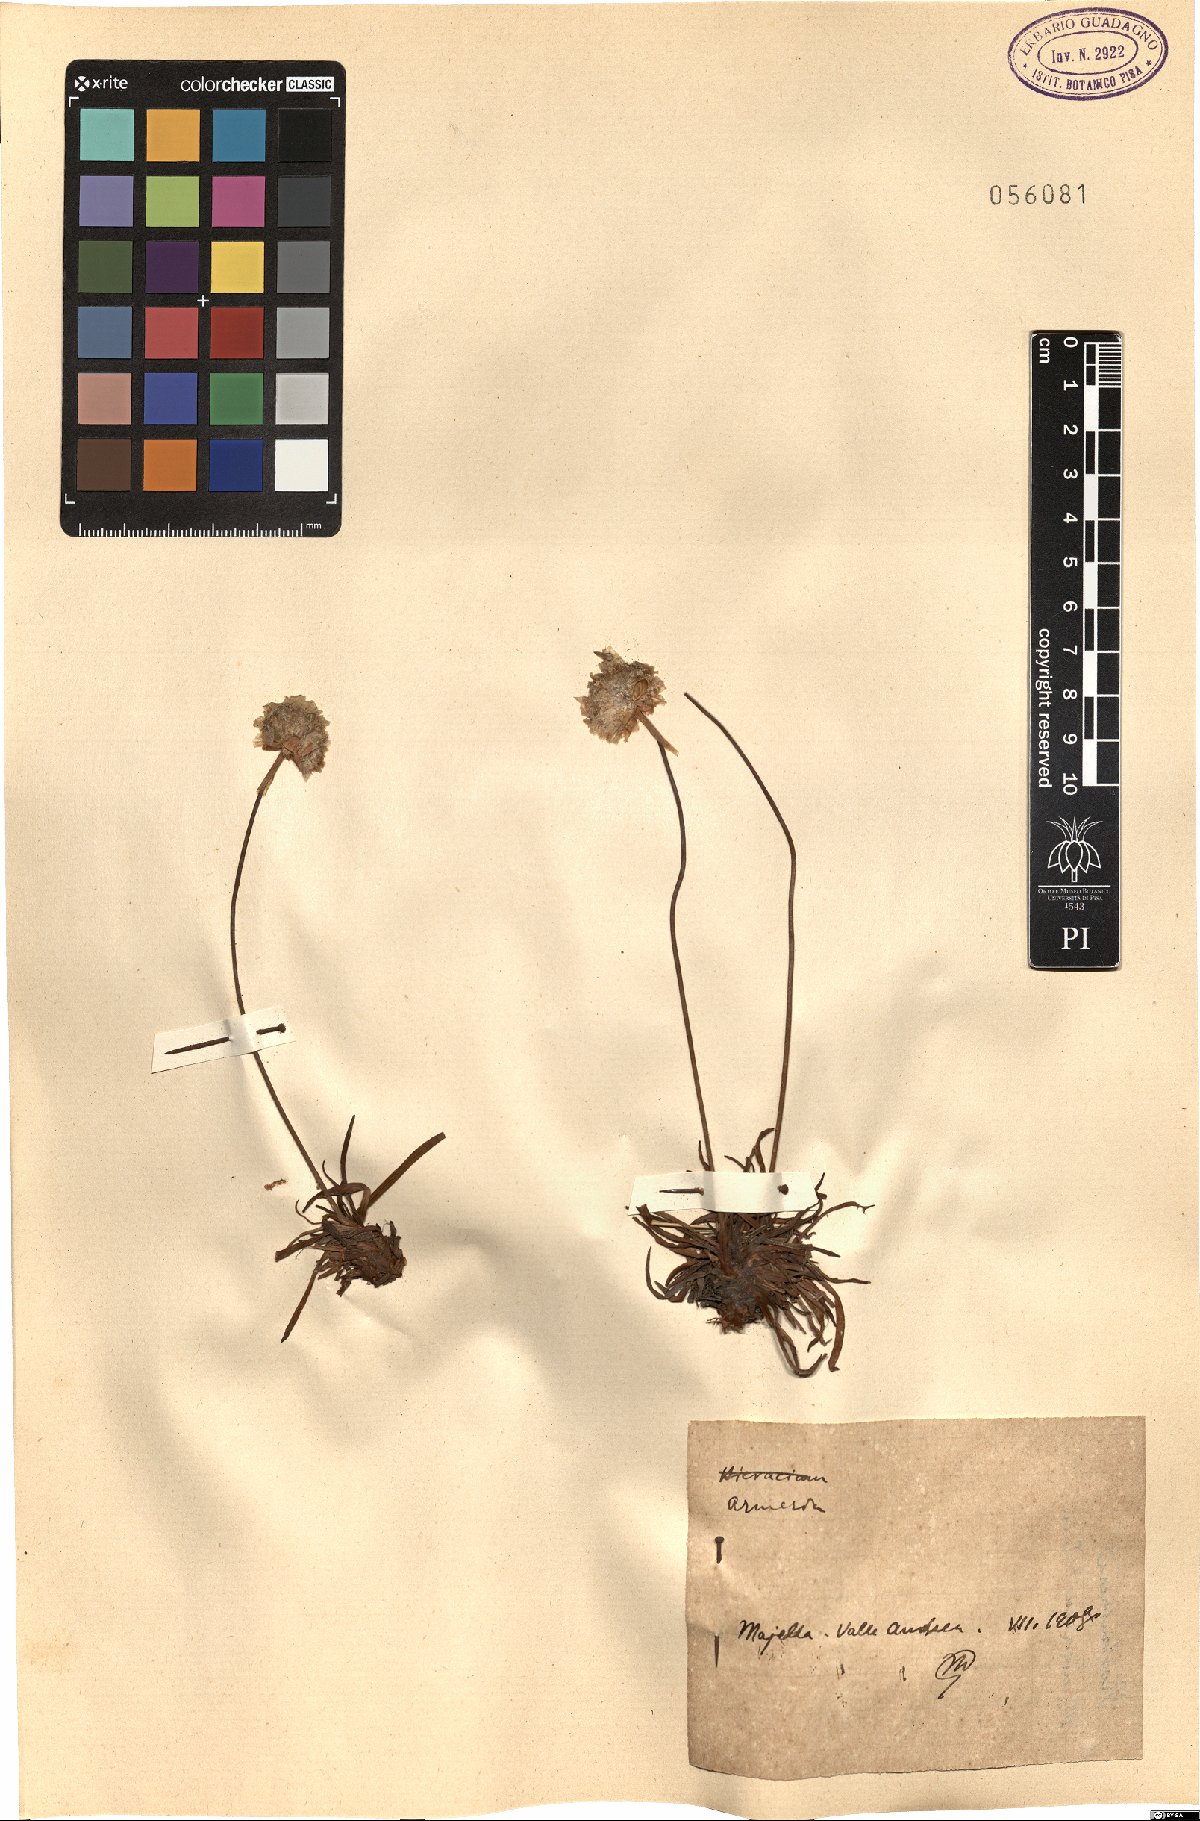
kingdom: Plantae
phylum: Tracheophyta
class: Magnoliopsida
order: Caryophyllales
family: Plumbaginaceae
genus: Armeria
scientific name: Armeria
